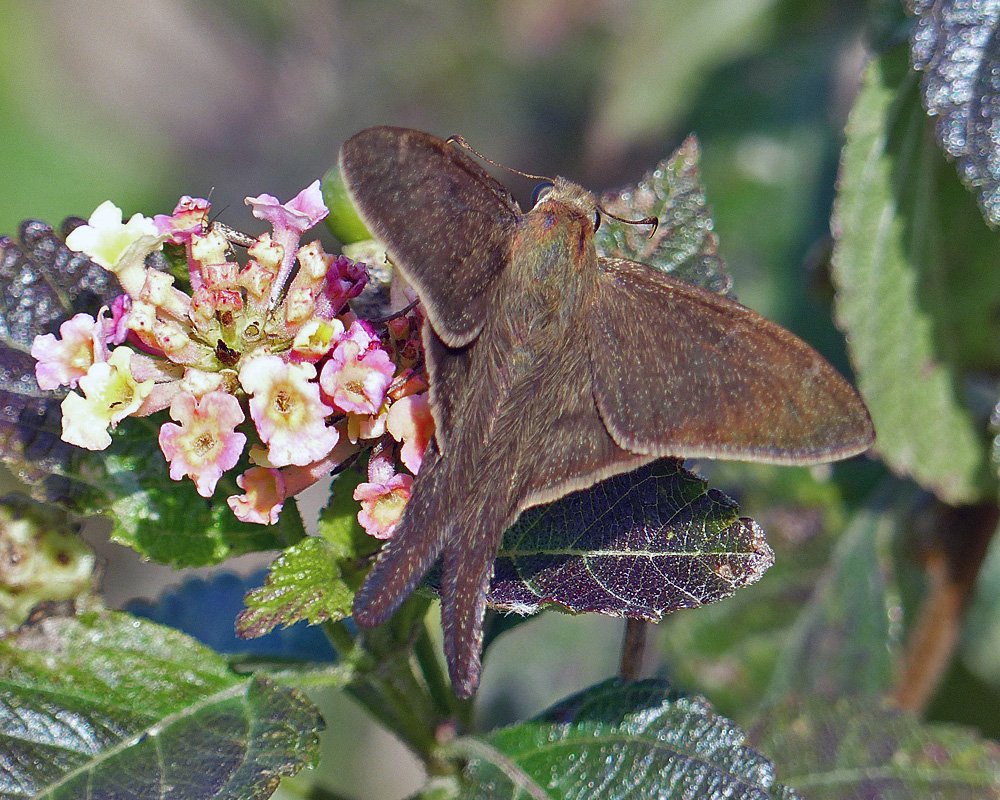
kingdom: Animalia
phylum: Arthropoda
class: Insecta
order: Lepidoptera
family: Hesperiidae
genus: Urbanus
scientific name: Urbanus procne
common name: Brown Longtail
